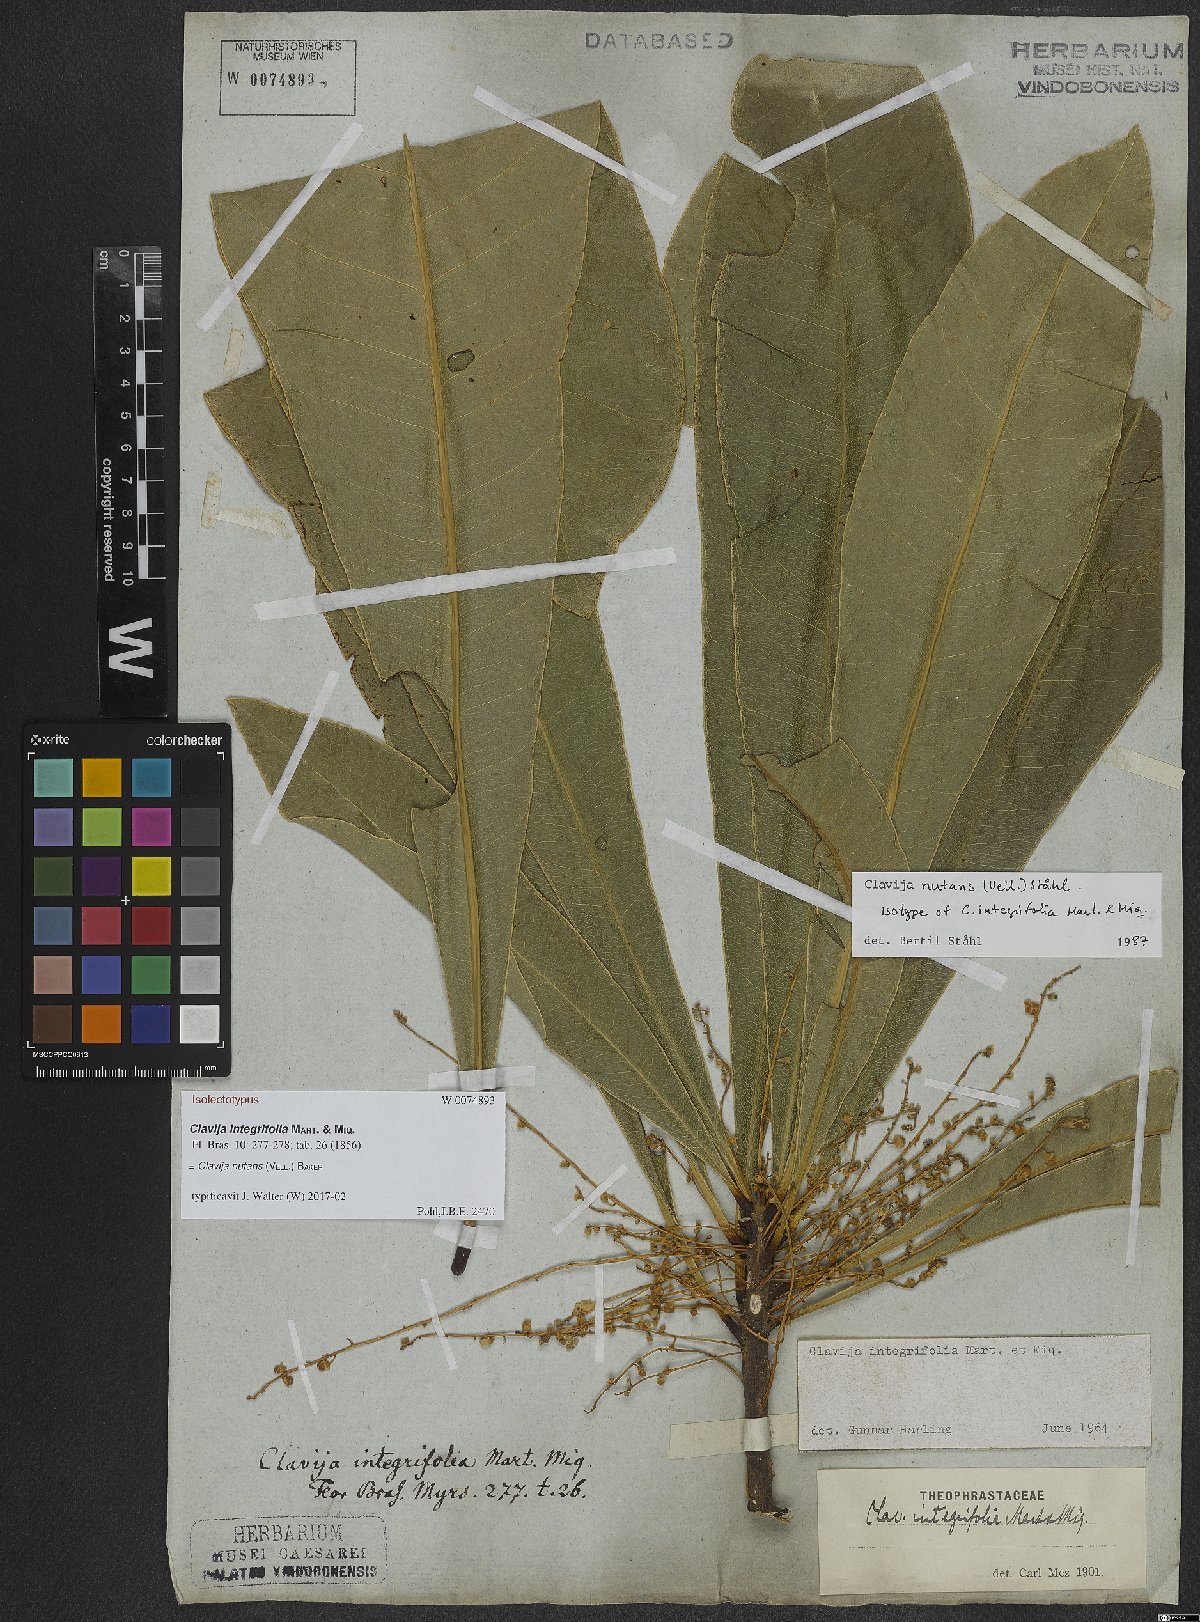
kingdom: Plantae
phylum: Tracheophyta
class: Magnoliopsida
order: Ericales
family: Primulaceae
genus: Clavija
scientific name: Clavija nutans
